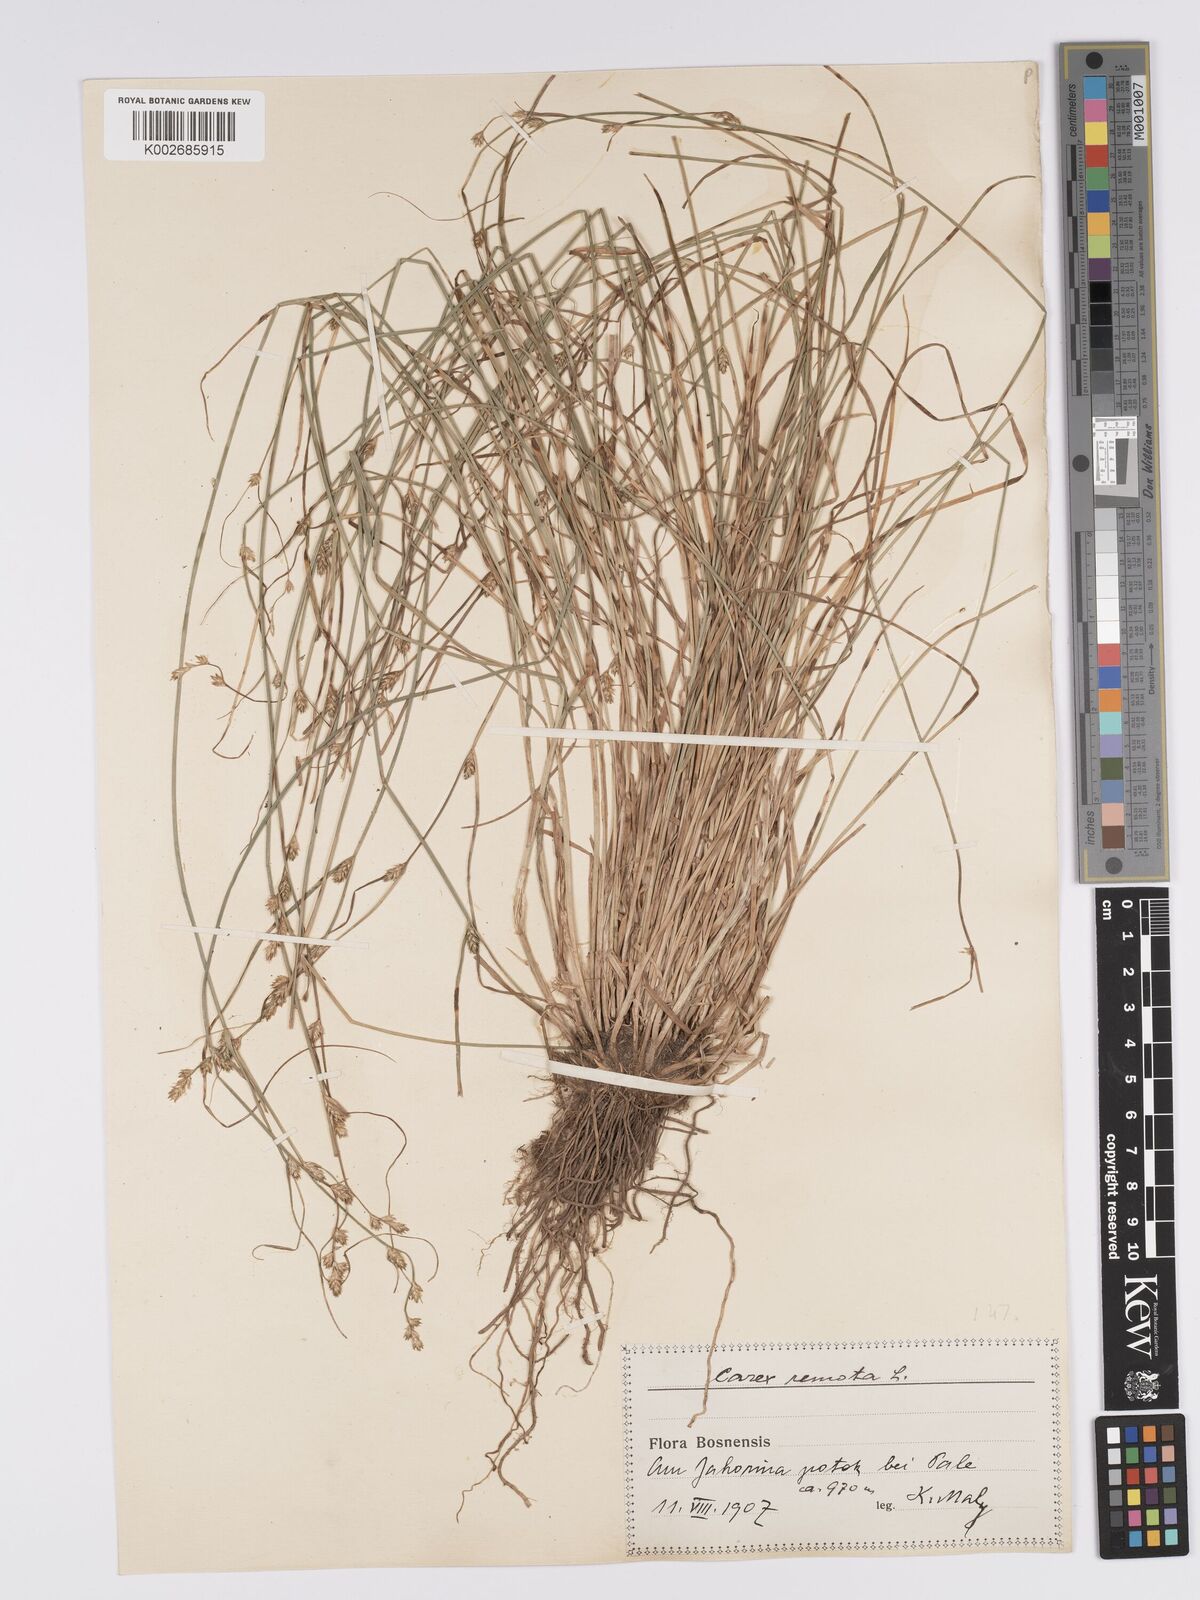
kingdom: Plantae
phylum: Tracheophyta
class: Liliopsida
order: Poales
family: Cyperaceae
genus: Carex
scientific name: Carex remota
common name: Remote sedge
